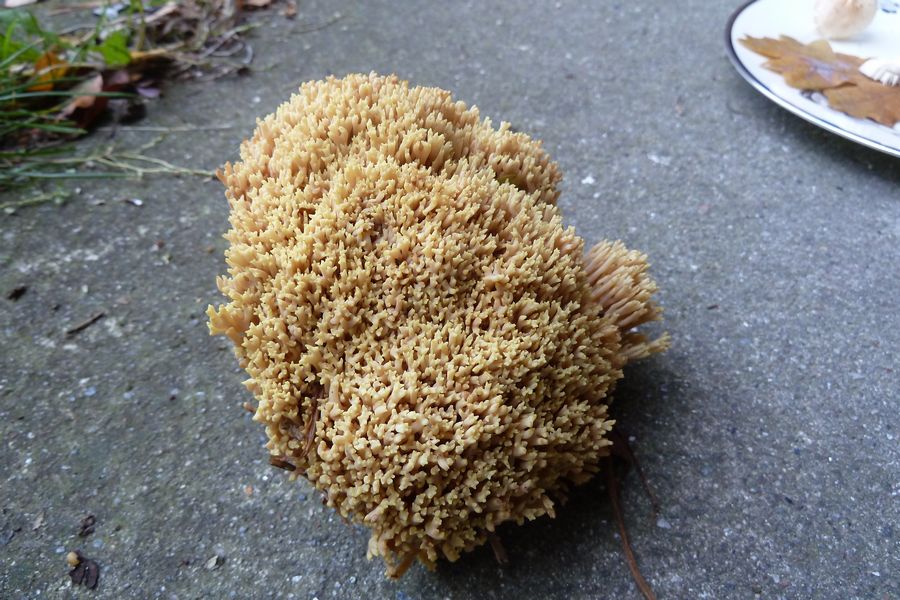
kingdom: Fungi
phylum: Basidiomycota
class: Agaricomycetes
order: Gomphales
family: Gomphaceae
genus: Ramaria
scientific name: Ramaria stricta
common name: rank koralsvamp
